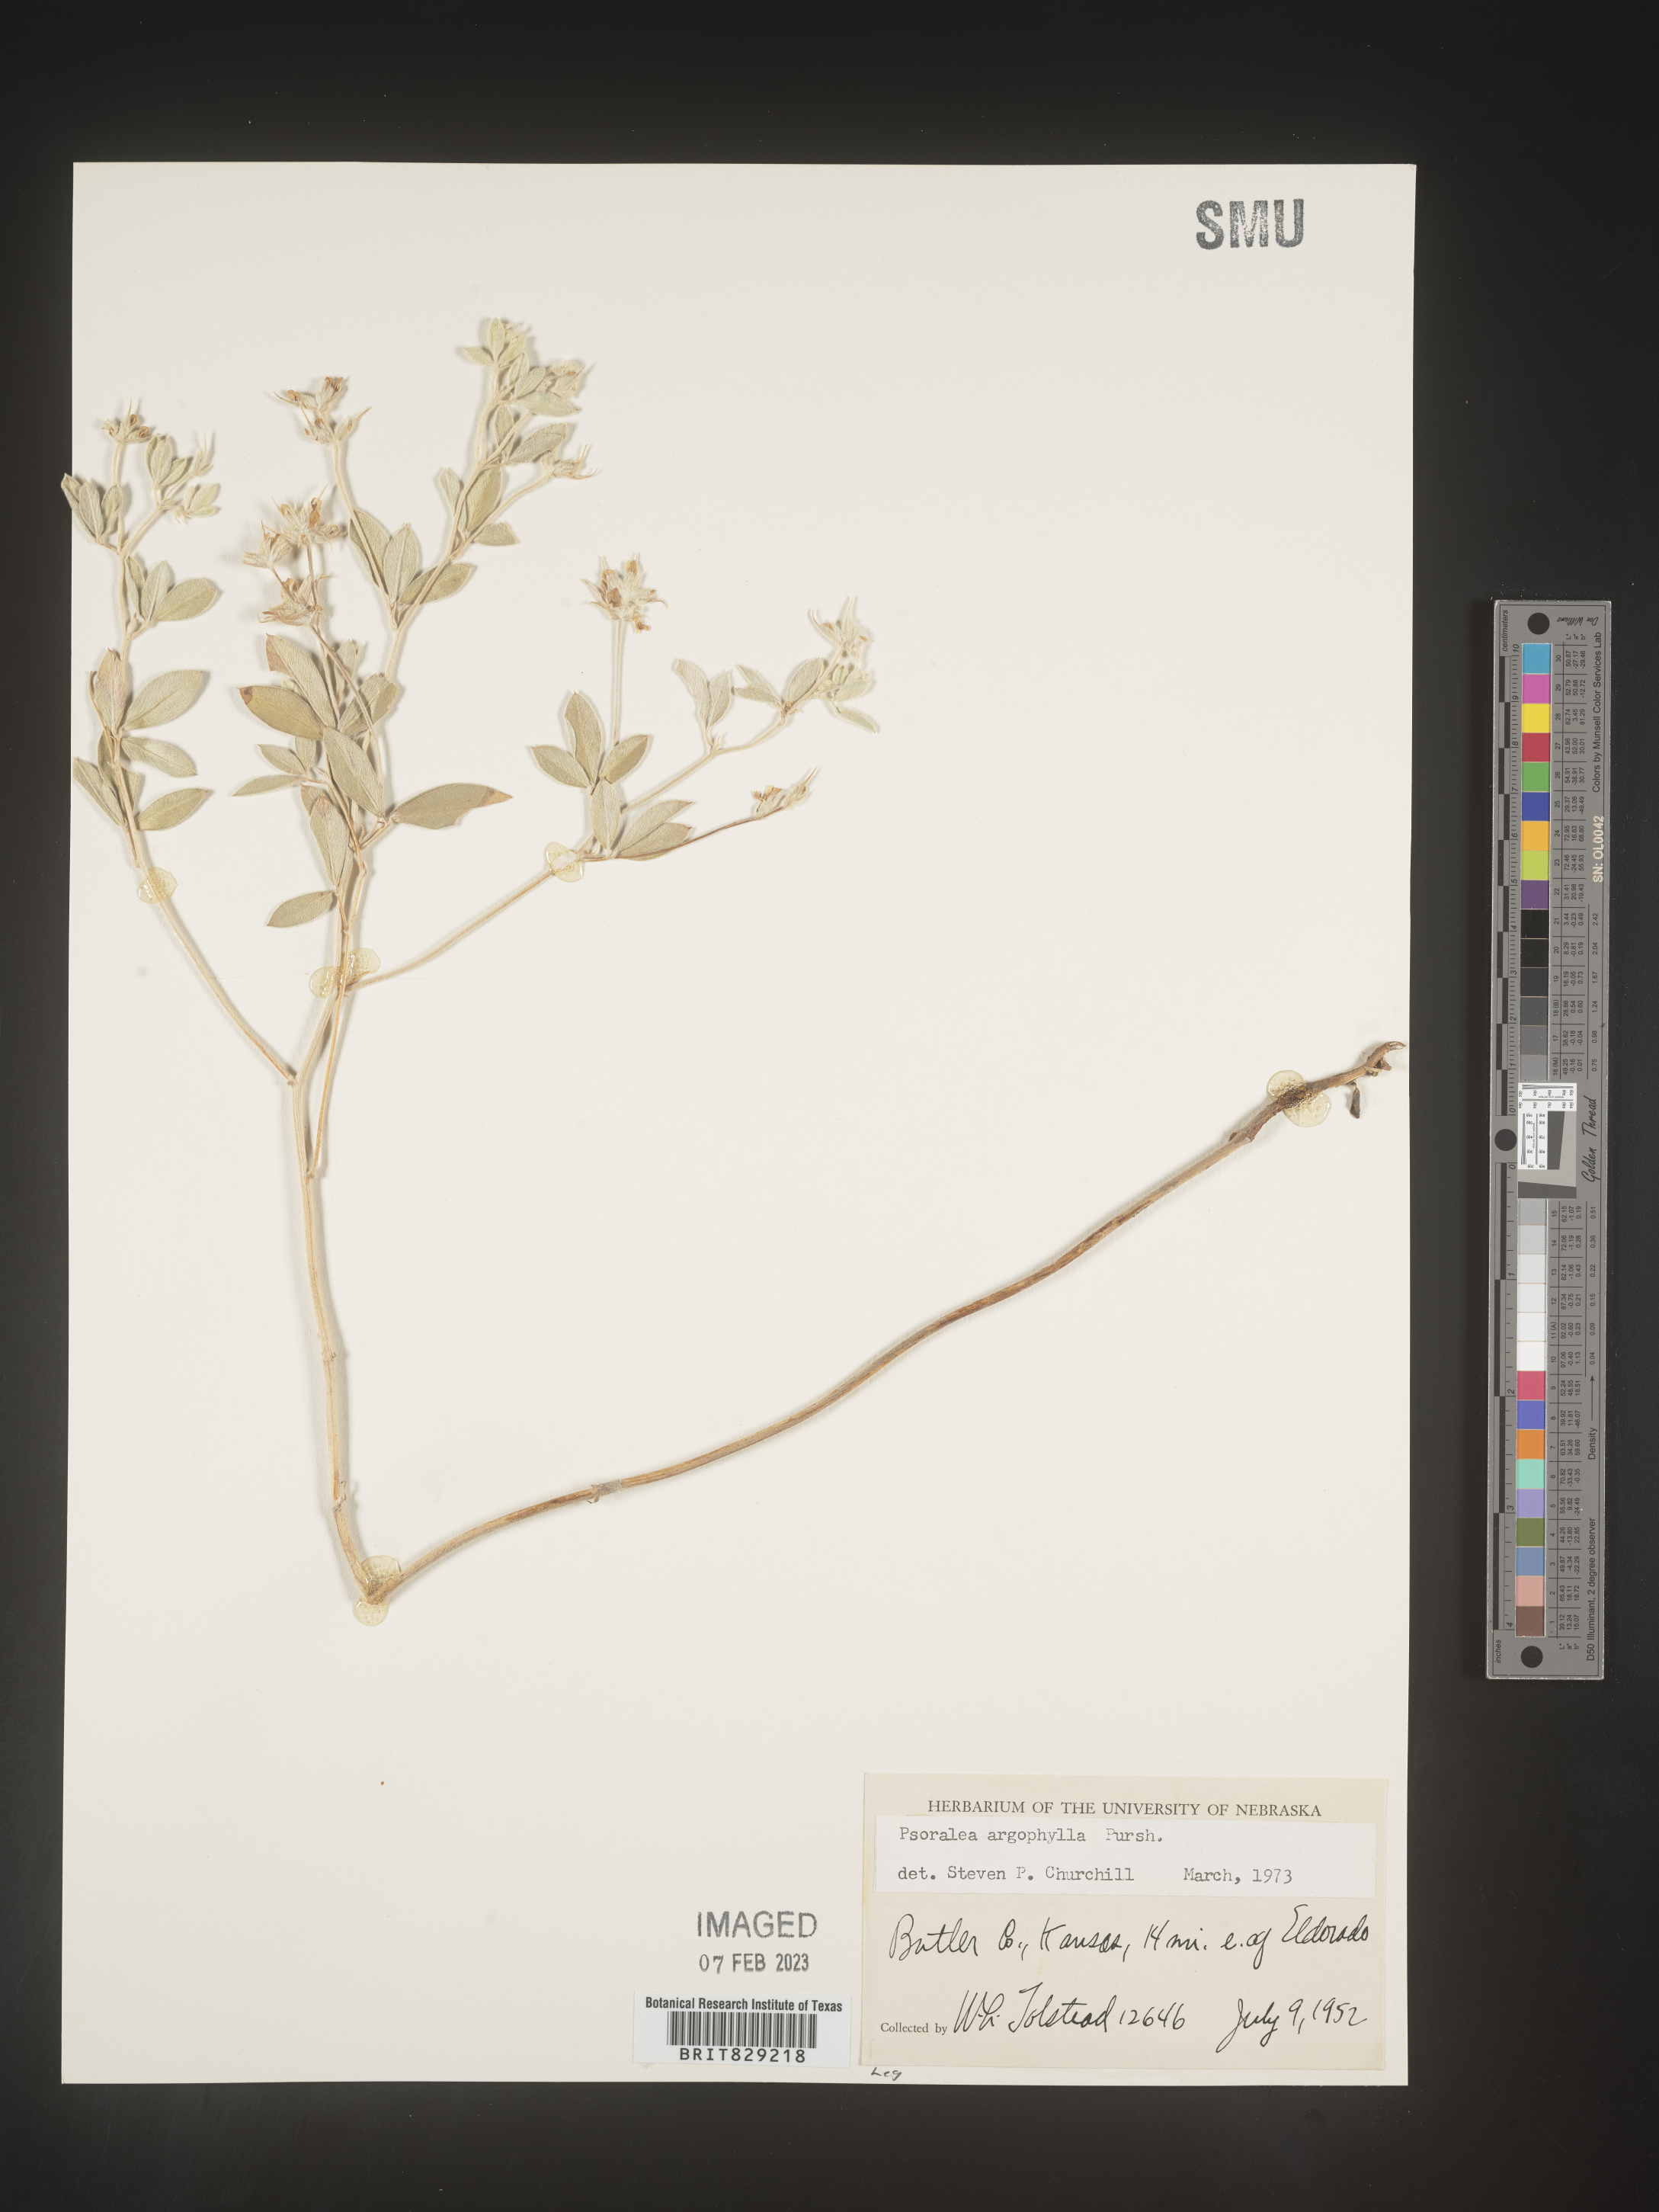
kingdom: Plantae
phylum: Tracheophyta
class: Magnoliopsida
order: Fabales
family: Fabaceae
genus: Pediomelum
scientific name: Pediomelum argophyllum
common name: Silver-leaved indian breadroot
